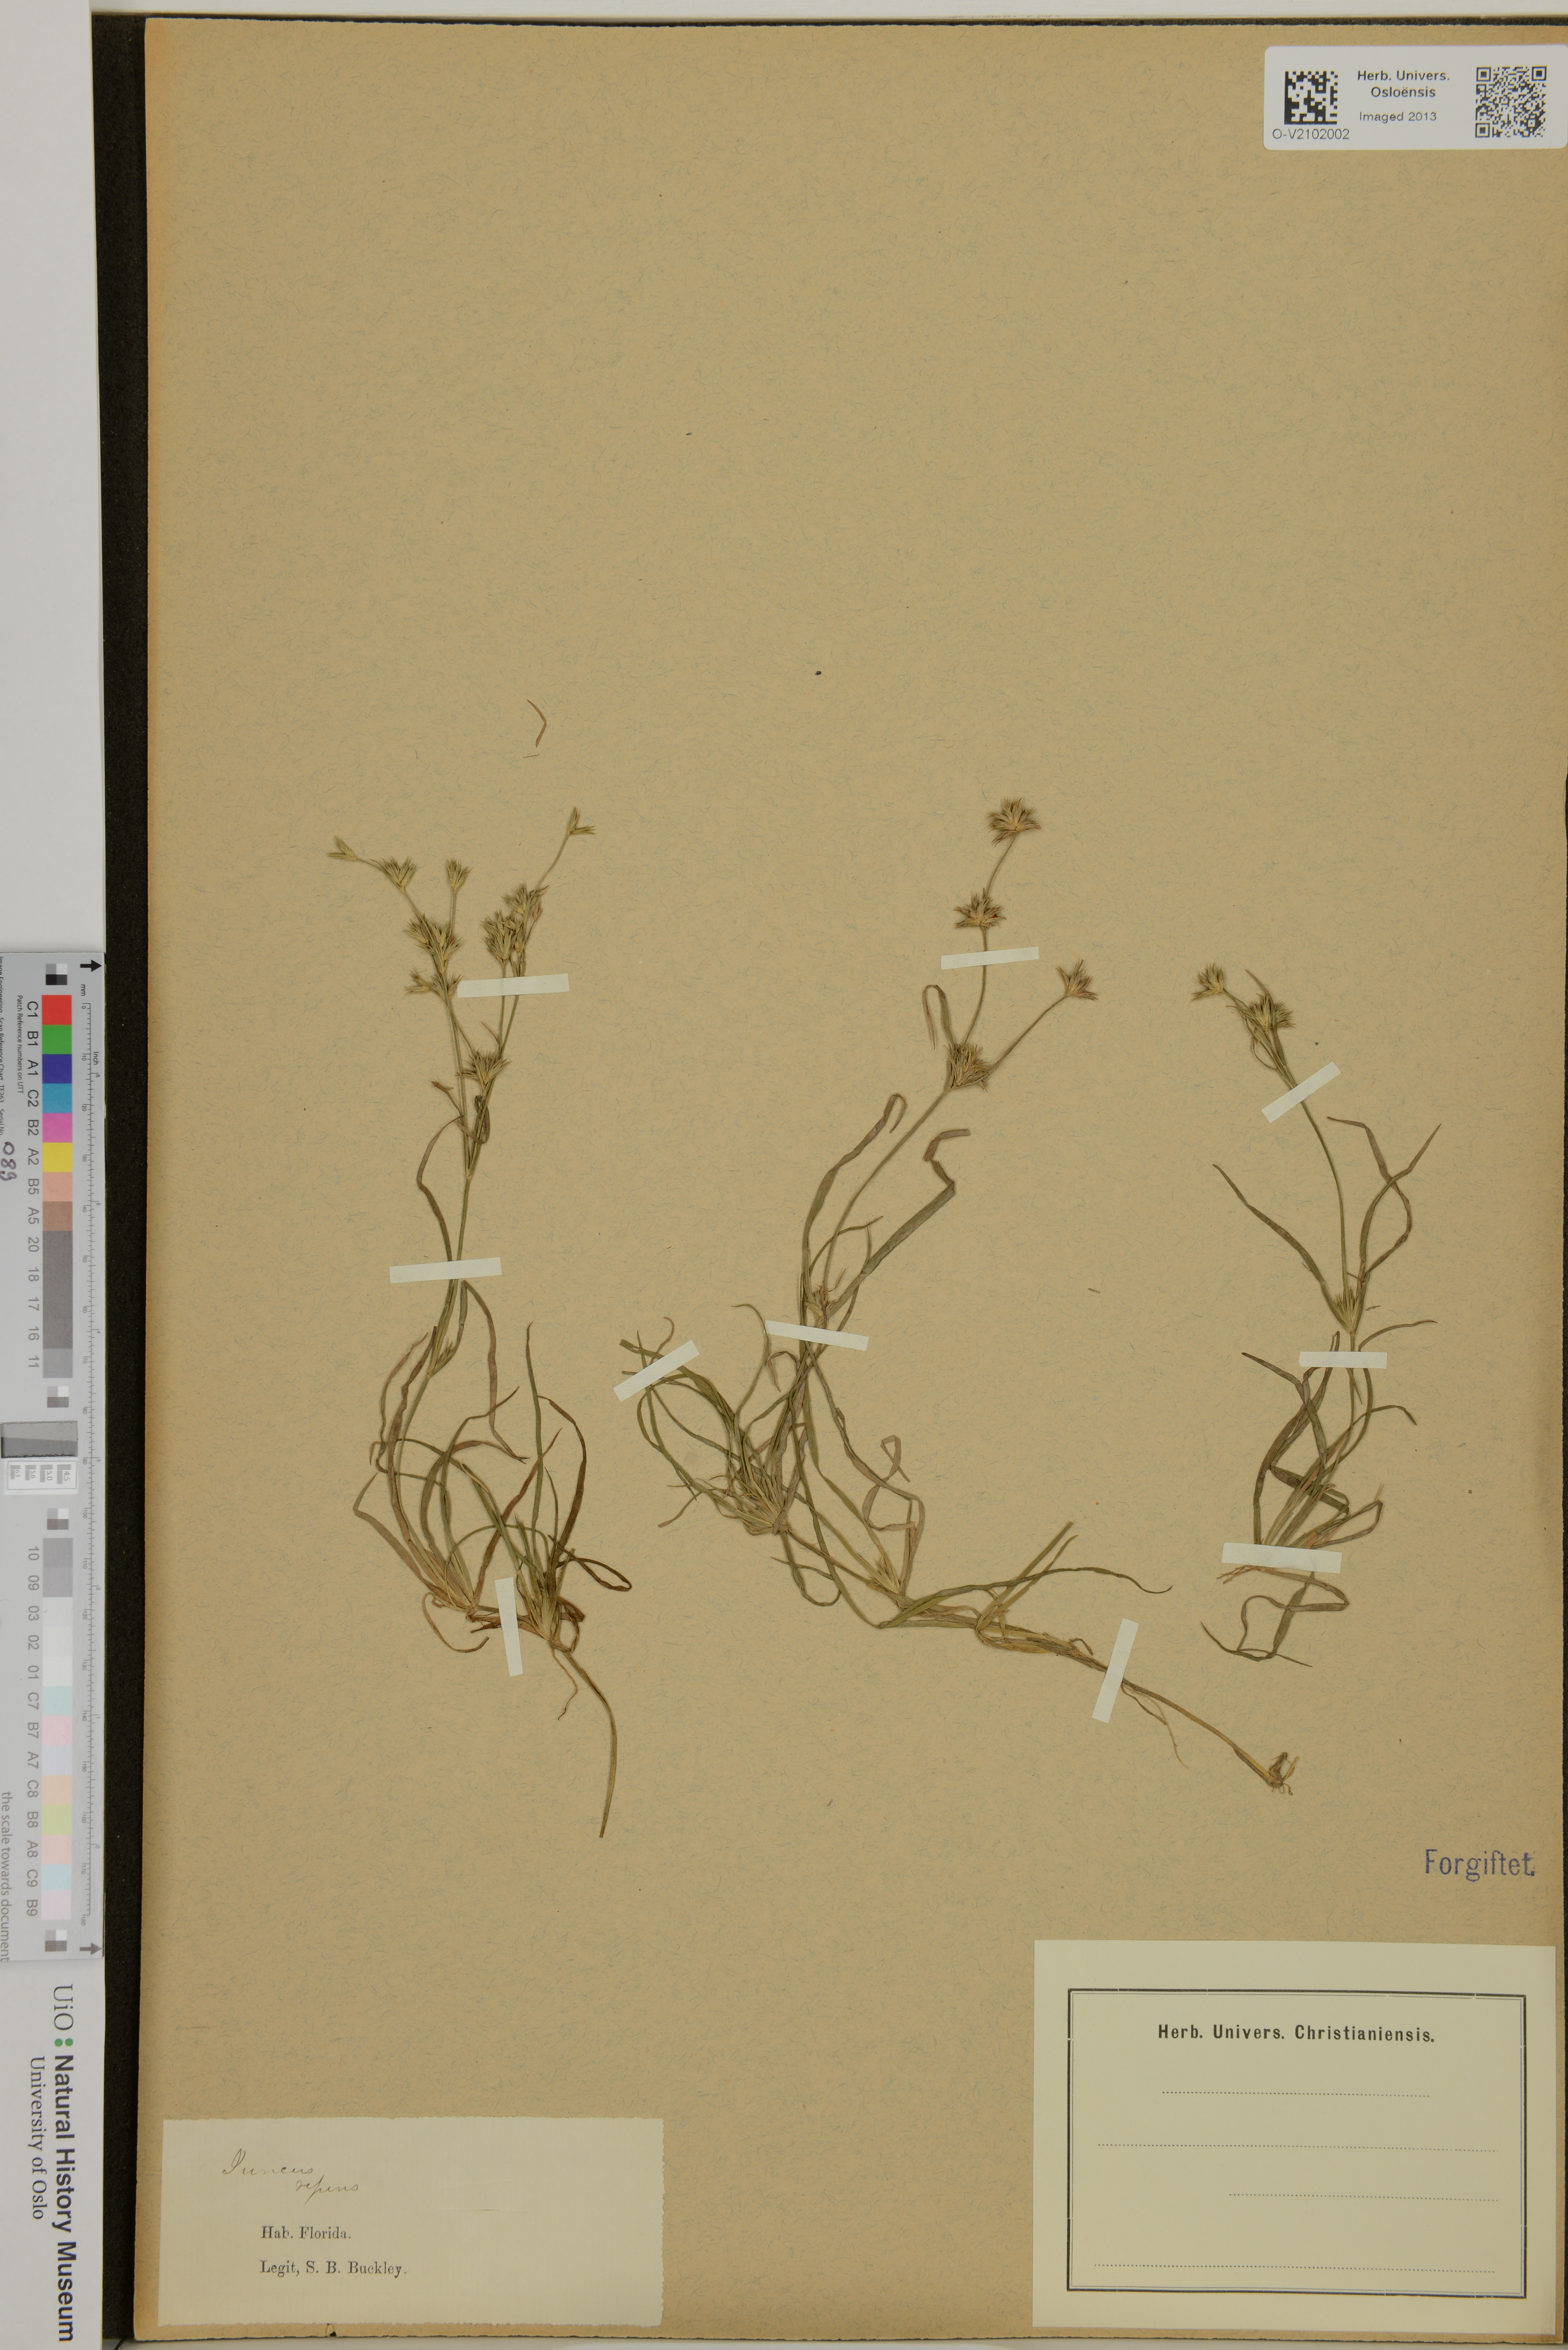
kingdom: Plantae
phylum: Tracheophyta
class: Liliopsida
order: Poales
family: Juncaceae
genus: Juncus
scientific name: Juncus repens
